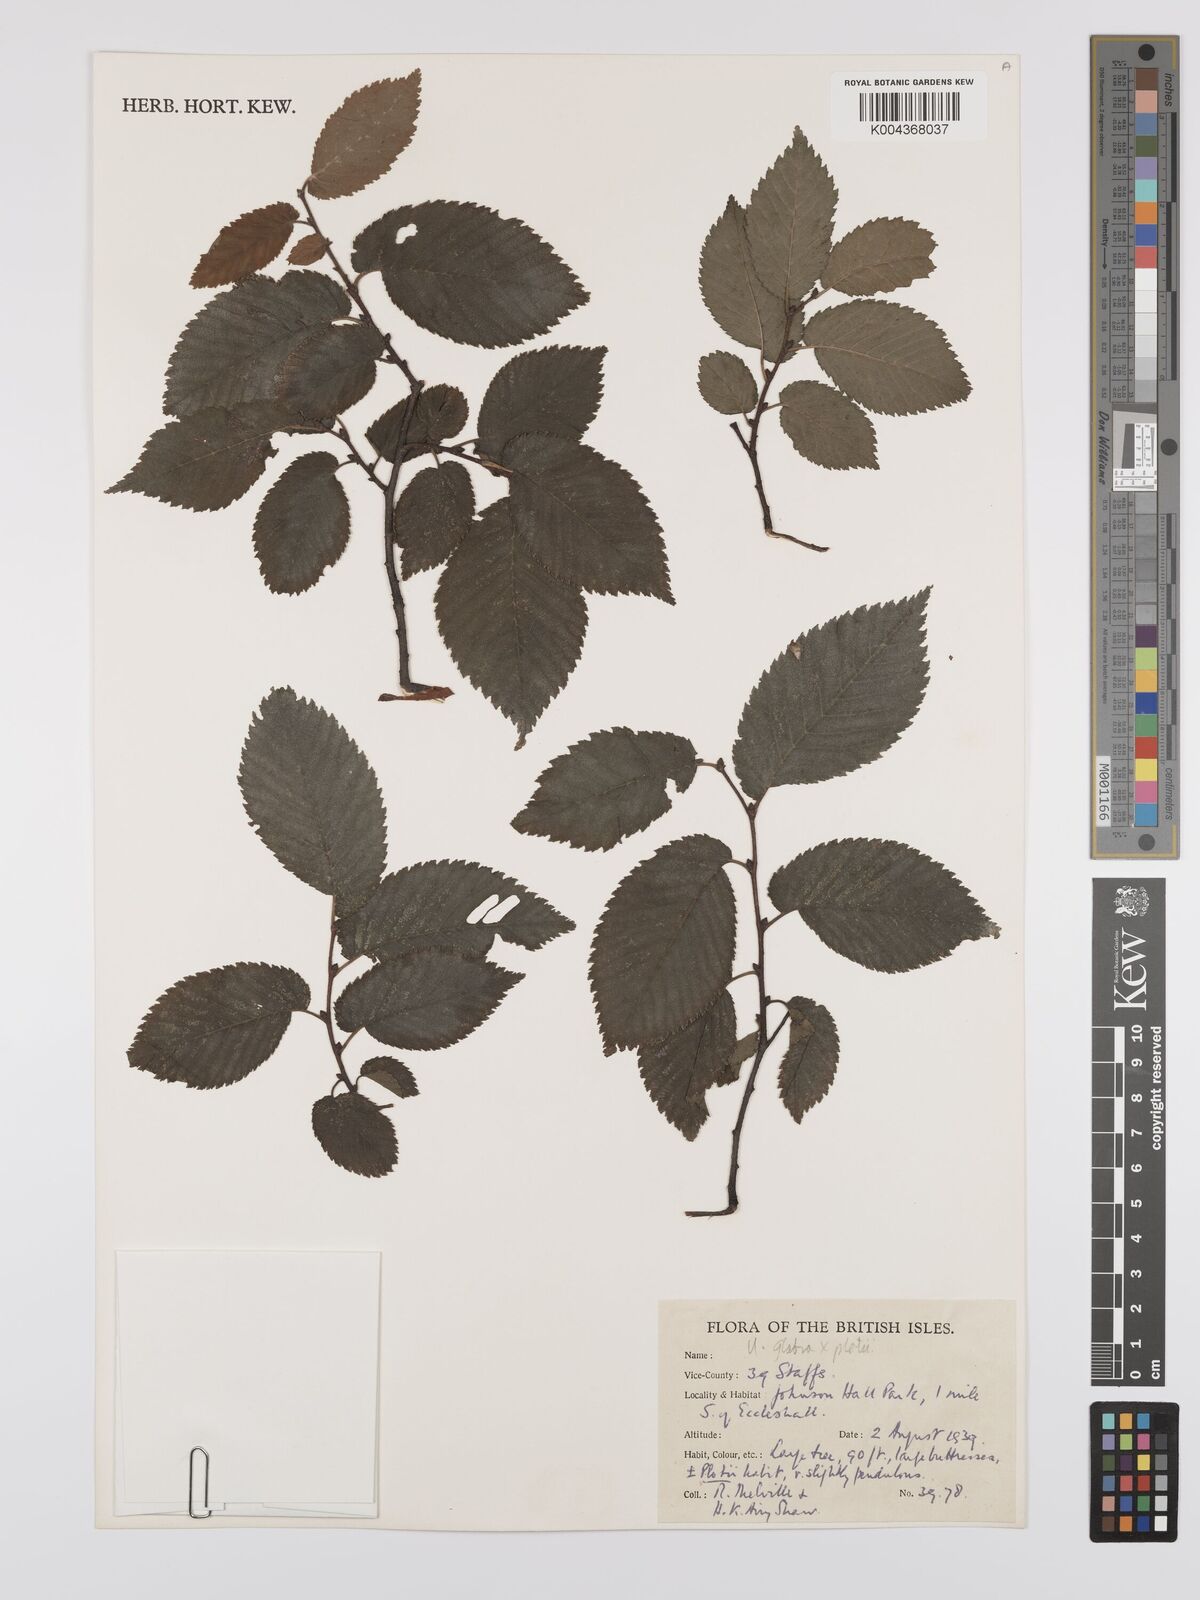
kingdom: Plantae
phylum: Tracheophyta
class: Magnoliopsida
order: Rosales
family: Ulmaceae
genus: Ulmus
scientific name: Ulmus
